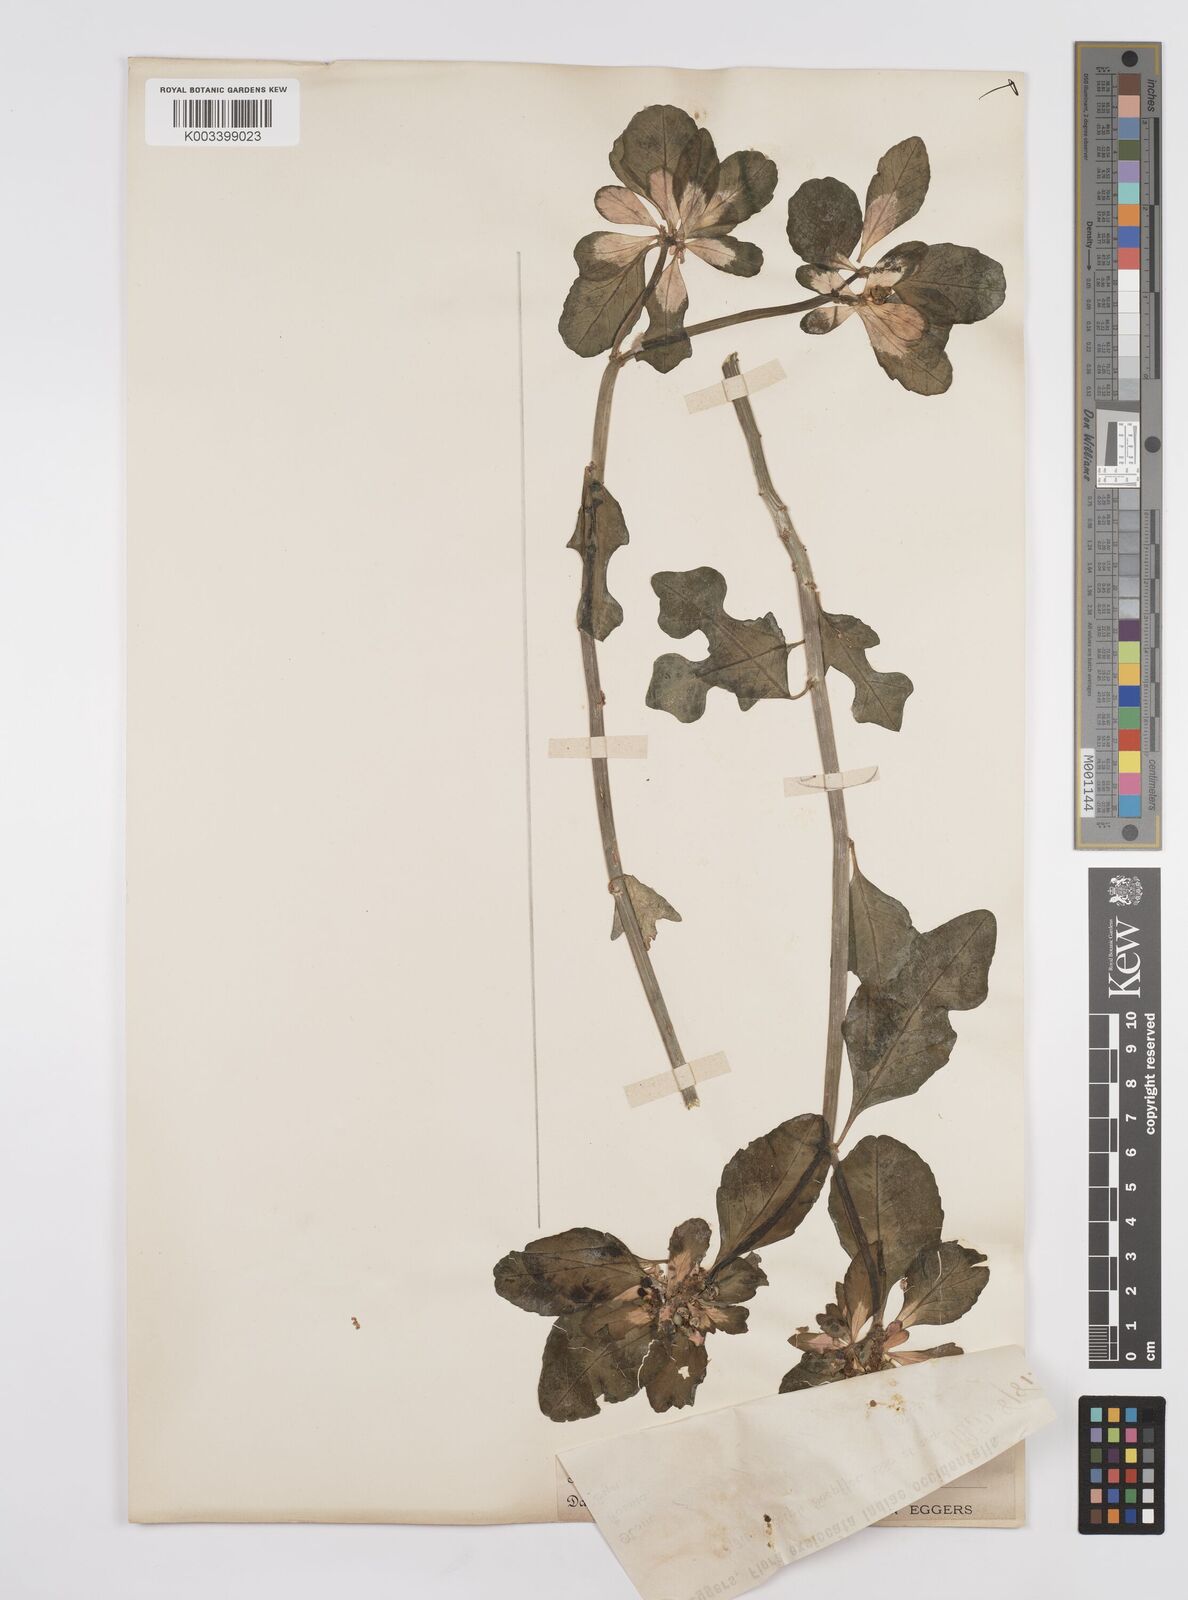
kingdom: Plantae
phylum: Tracheophyta
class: Magnoliopsida
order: Malpighiales
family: Euphorbiaceae
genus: Euphorbia
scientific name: Euphorbia heterophylla
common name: Mexican fireplant
